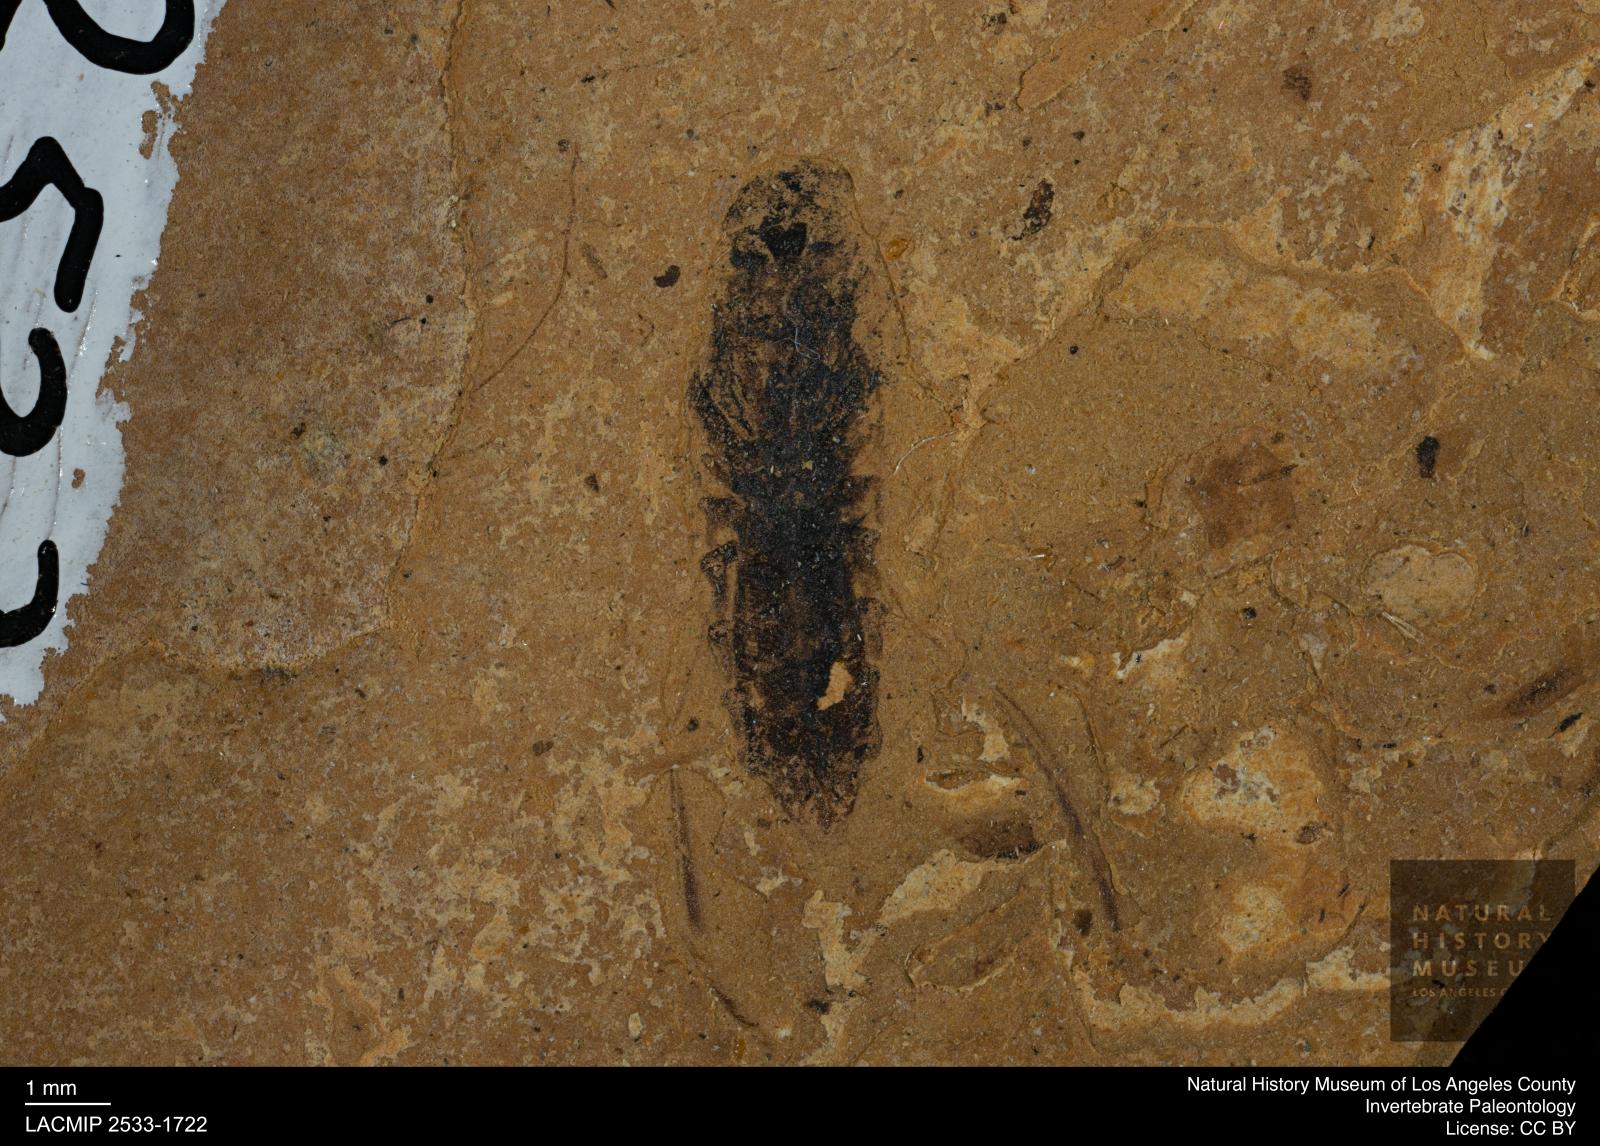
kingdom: Animalia
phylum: Arthropoda
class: Insecta
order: Hemiptera
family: Notonectidae
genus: Notonecta
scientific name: Notonecta
